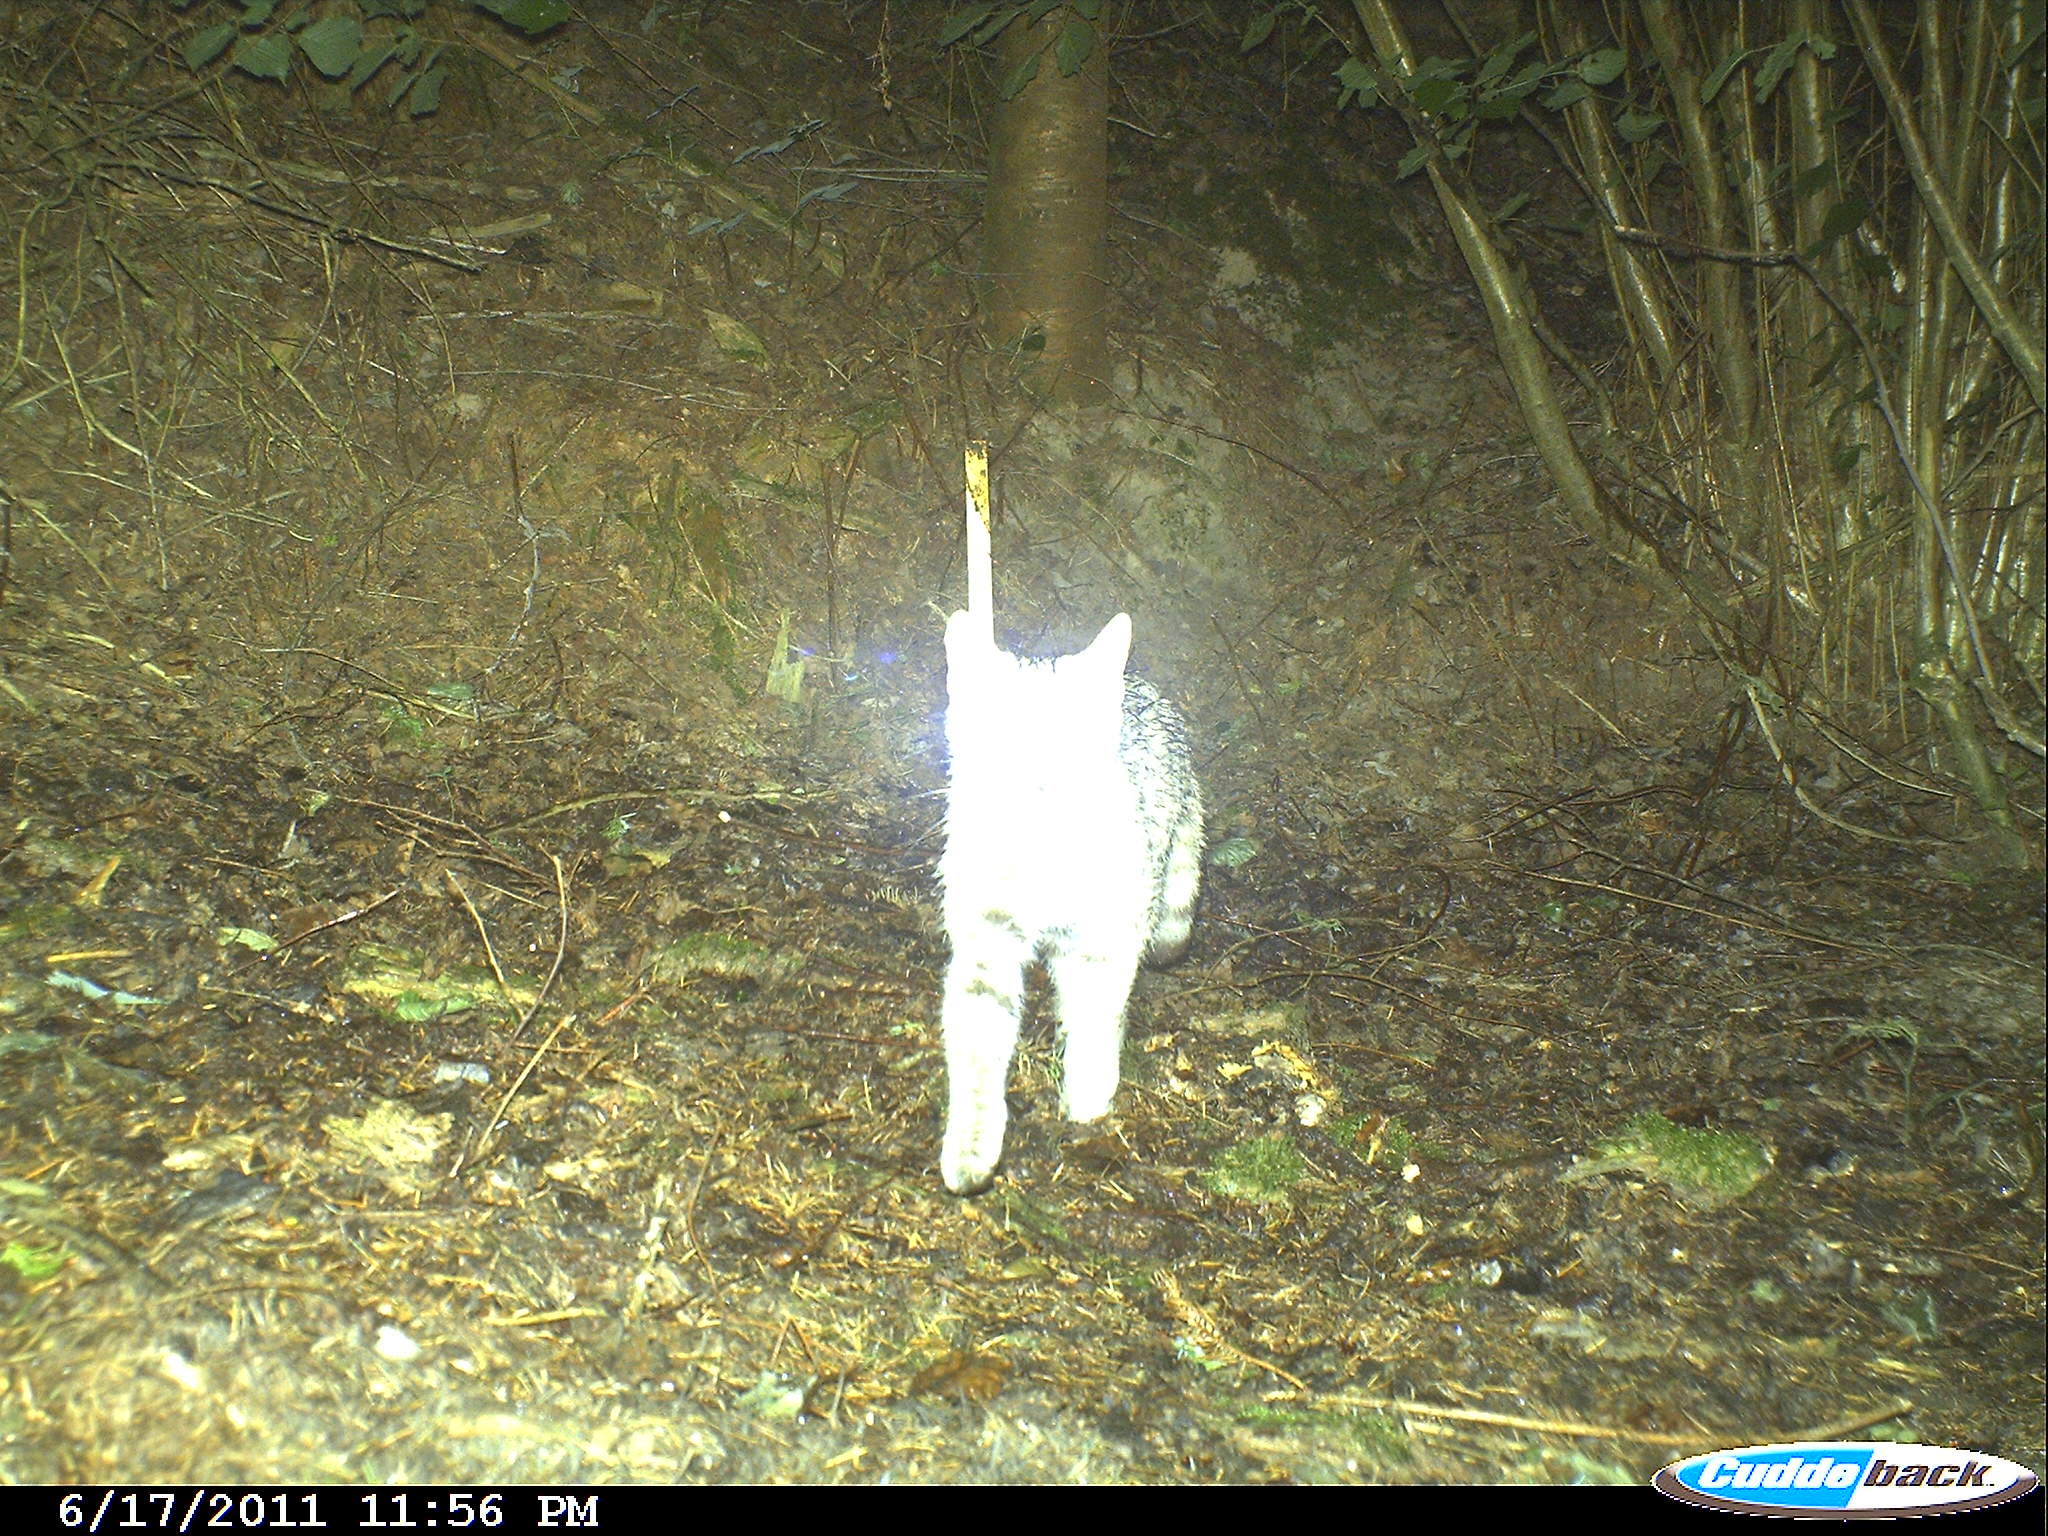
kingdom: Animalia
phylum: Chordata
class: Mammalia
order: Carnivora
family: Felidae
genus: Felis
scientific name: Felis silvestris
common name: Wildcat
